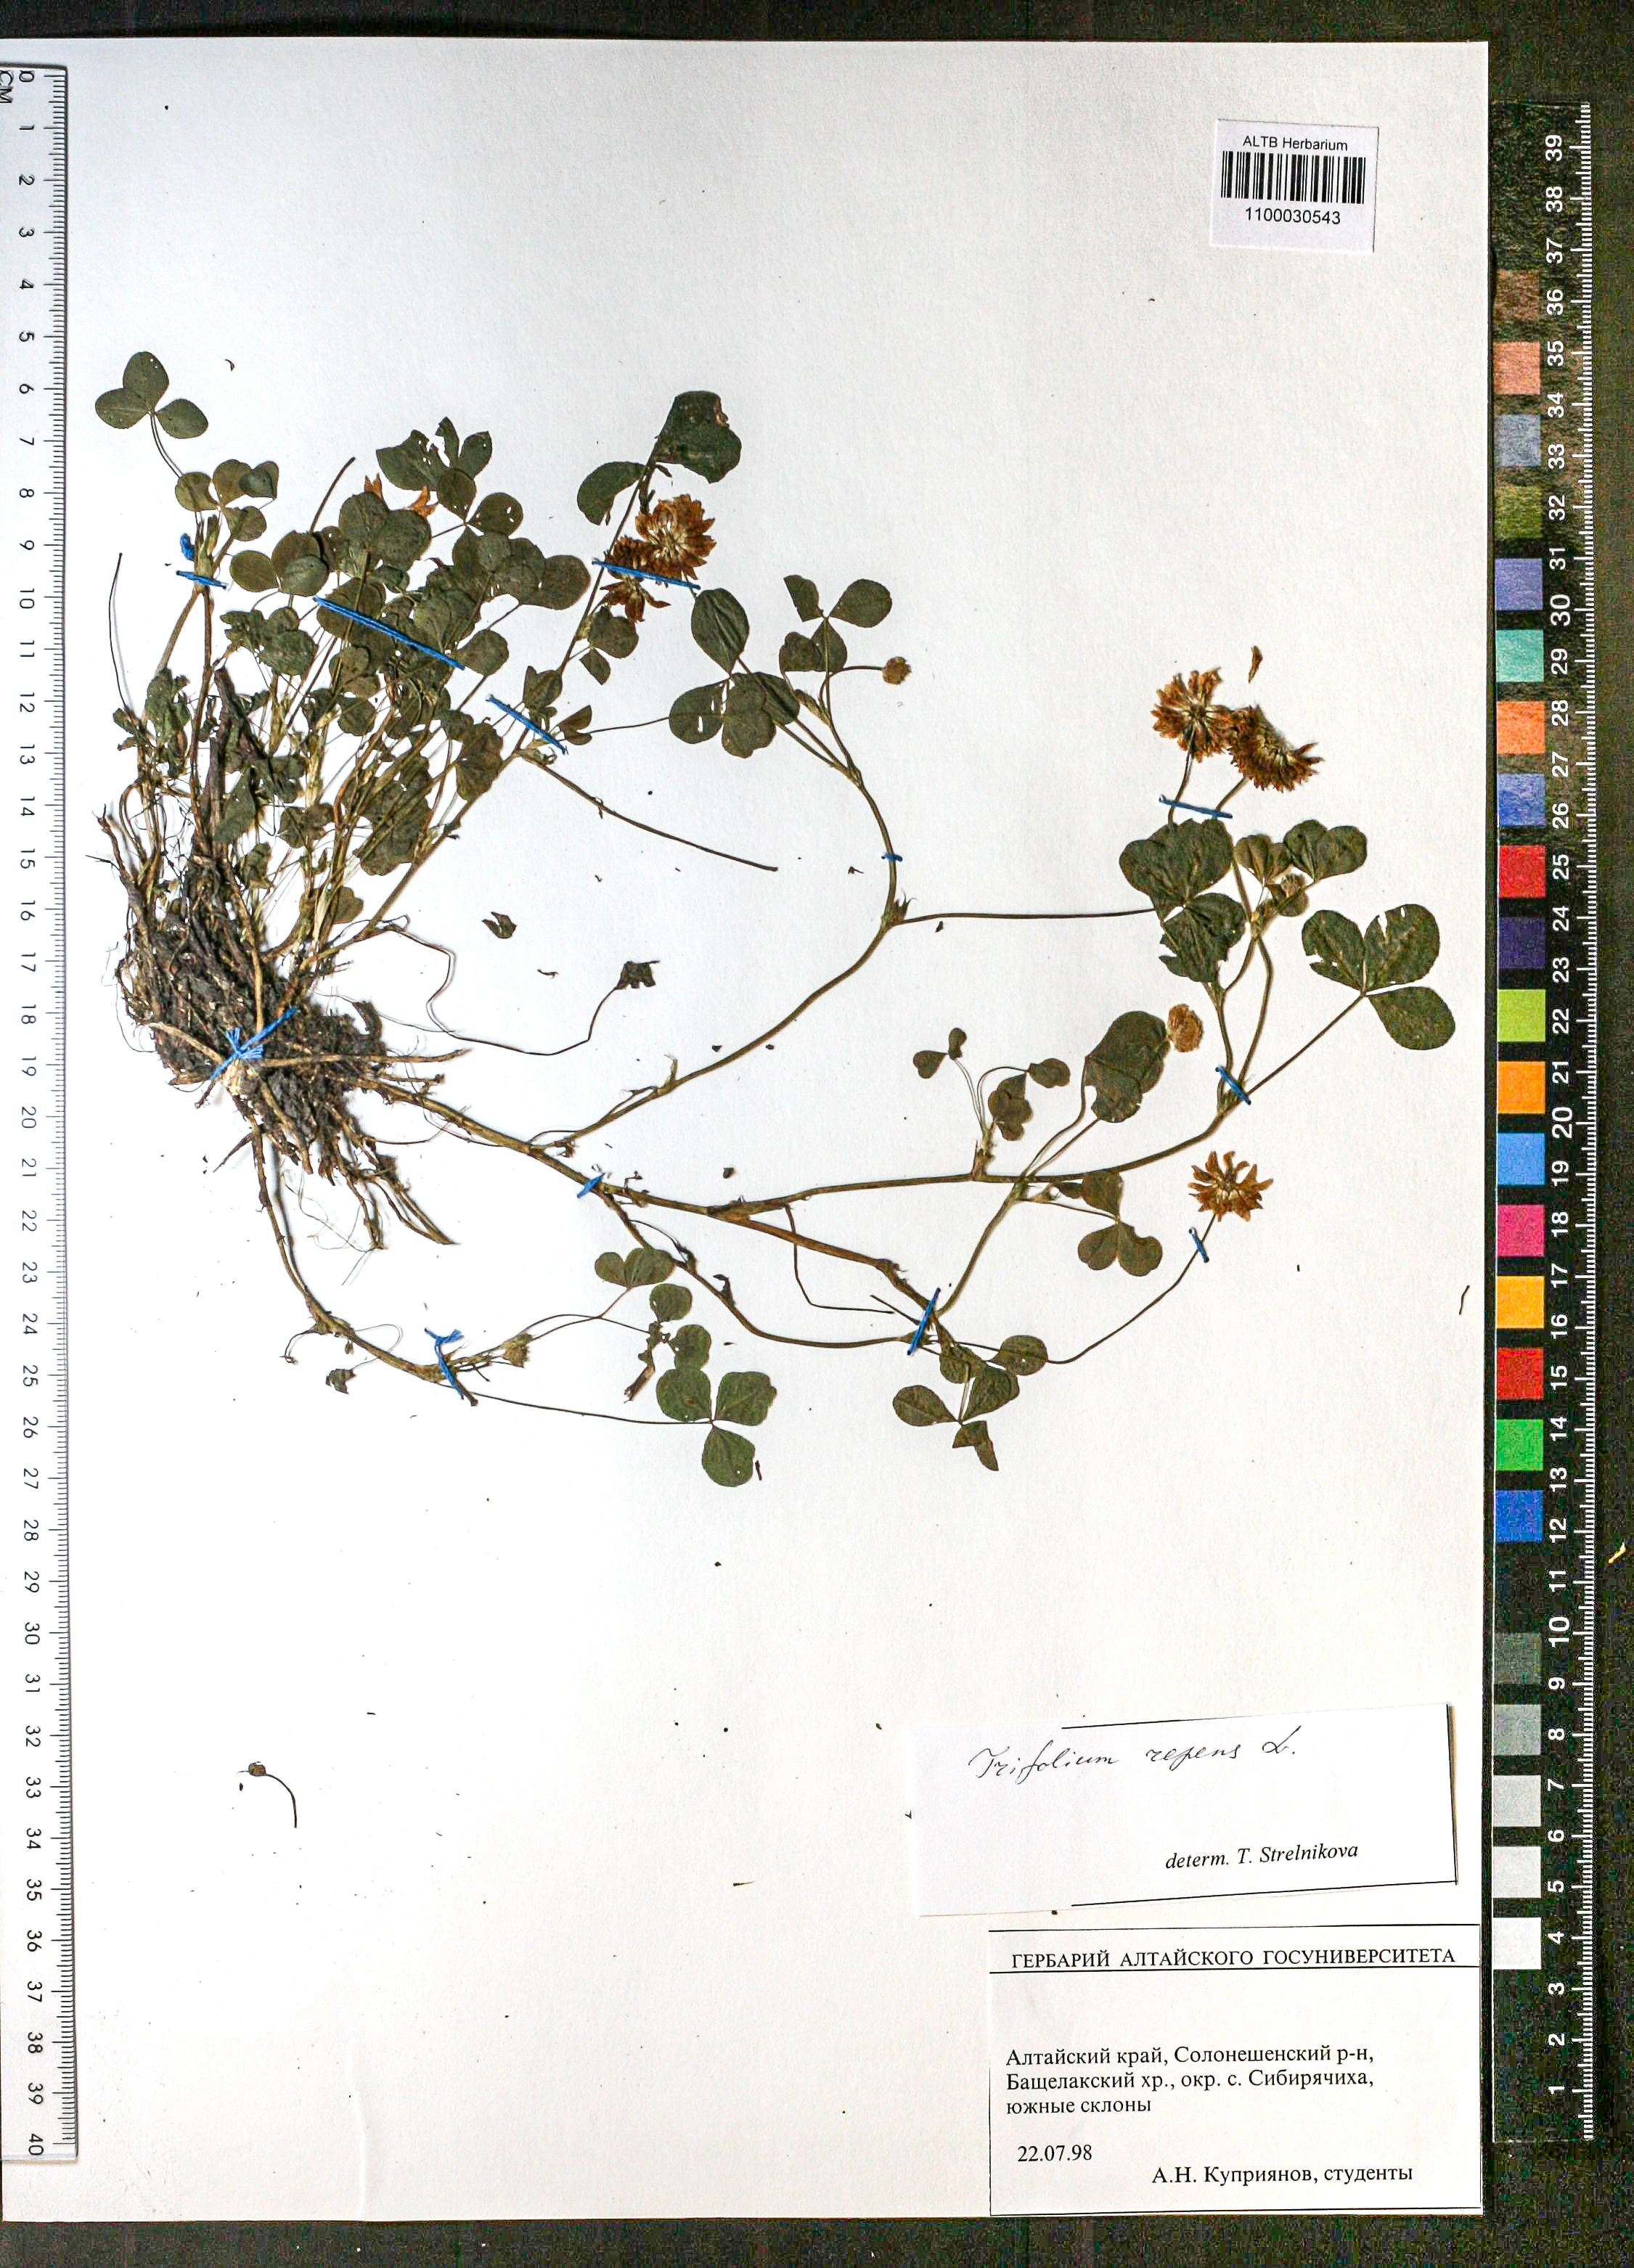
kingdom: Plantae
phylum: Tracheophyta
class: Magnoliopsida
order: Fabales
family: Fabaceae
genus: Trifolium
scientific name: Trifolium repens
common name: White clover
